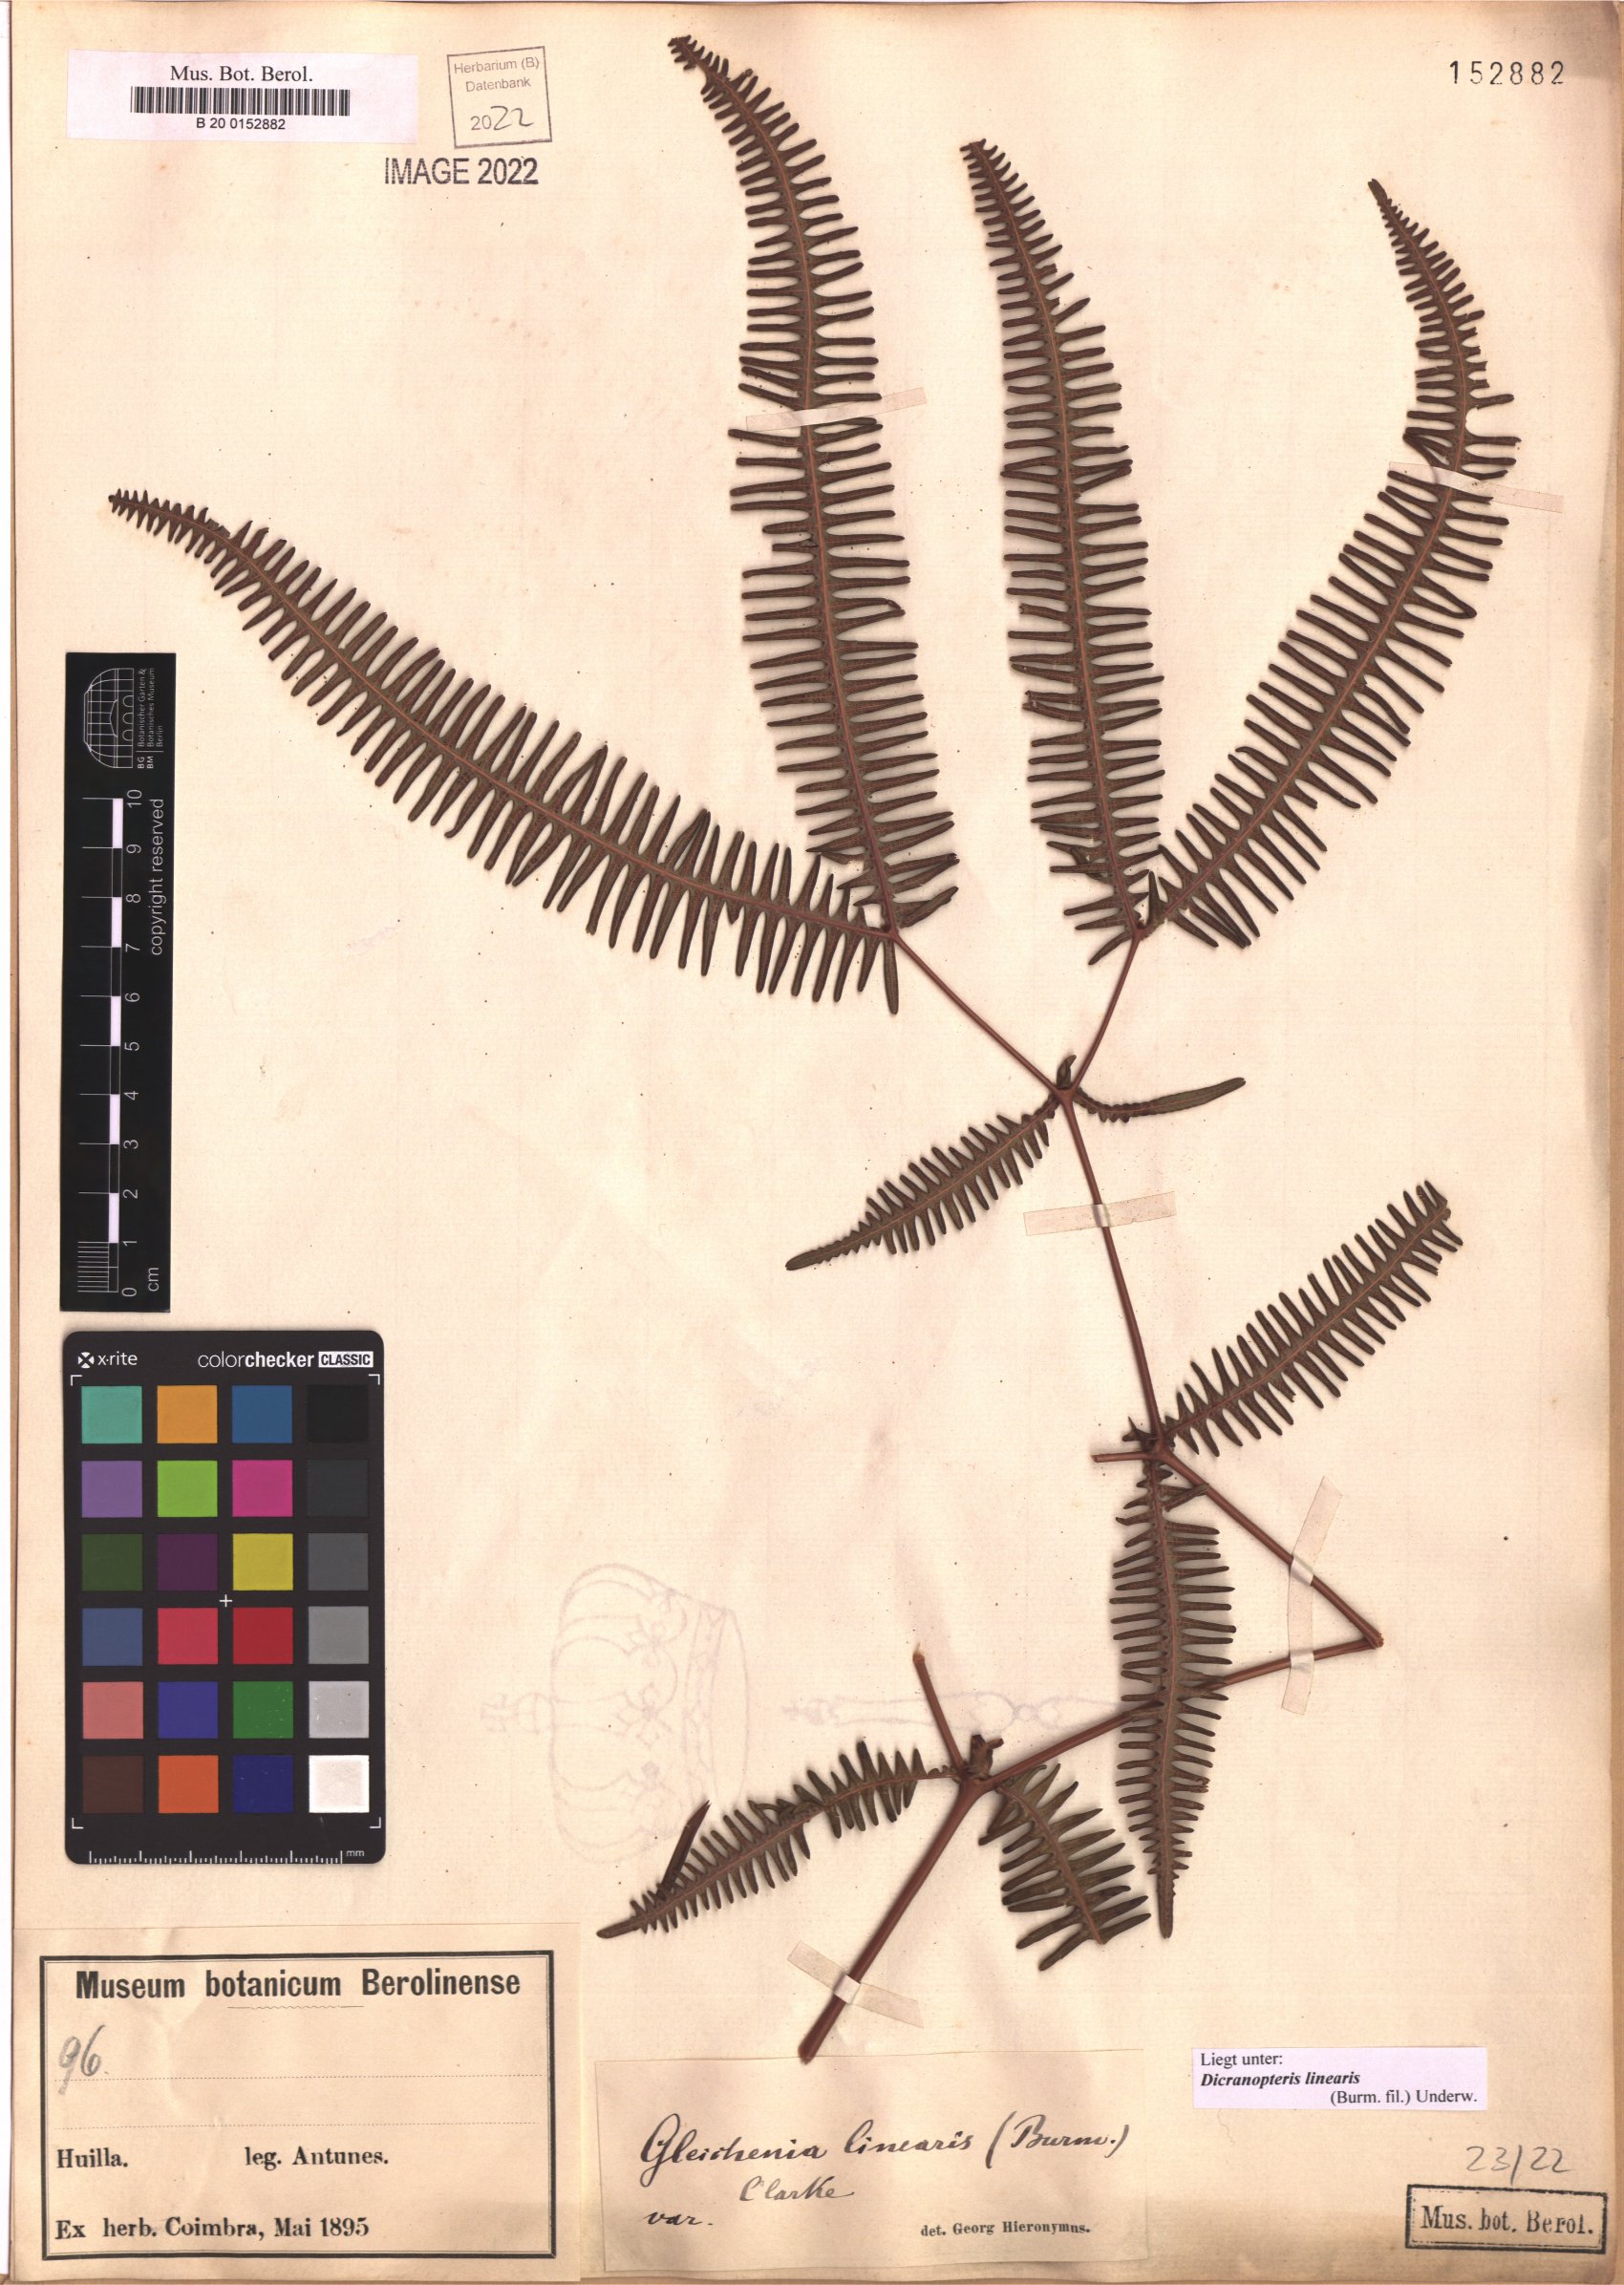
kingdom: Plantae
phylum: Tracheophyta
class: Polypodiopsida
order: Gleicheniales
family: Gleicheniaceae
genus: Dicranopteris
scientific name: Dicranopteris linearis
